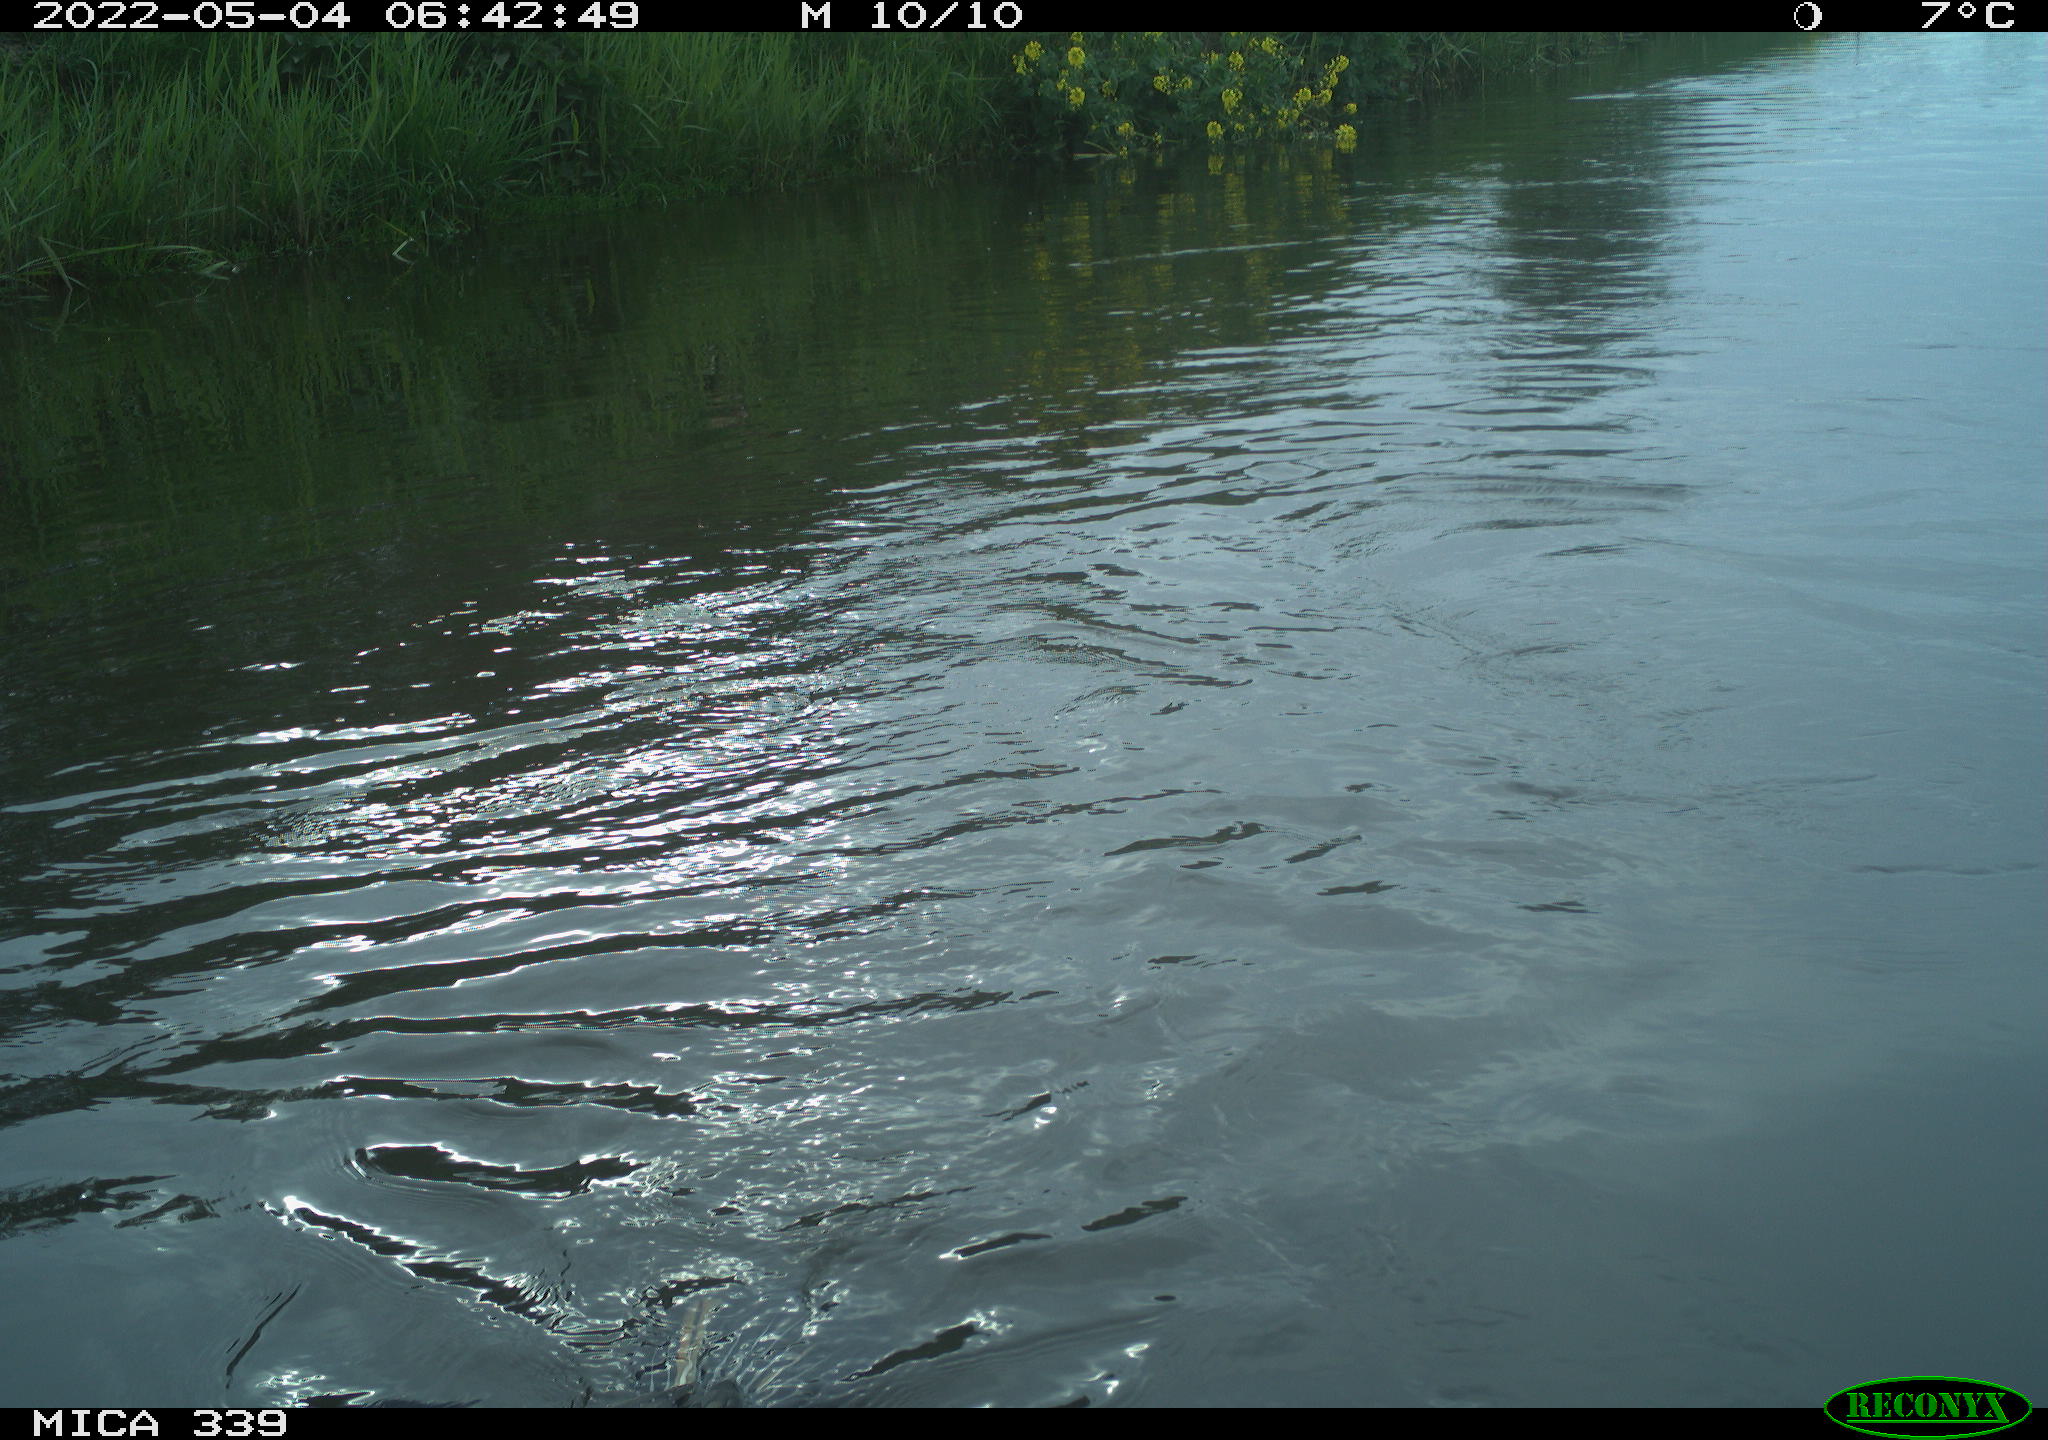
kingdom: Animalia
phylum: Chordata
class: Aves
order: Suliformes
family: Phalacrocoracidae
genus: Phalacrocorax
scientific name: Phalacrocorax carbo
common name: Great cormorant
